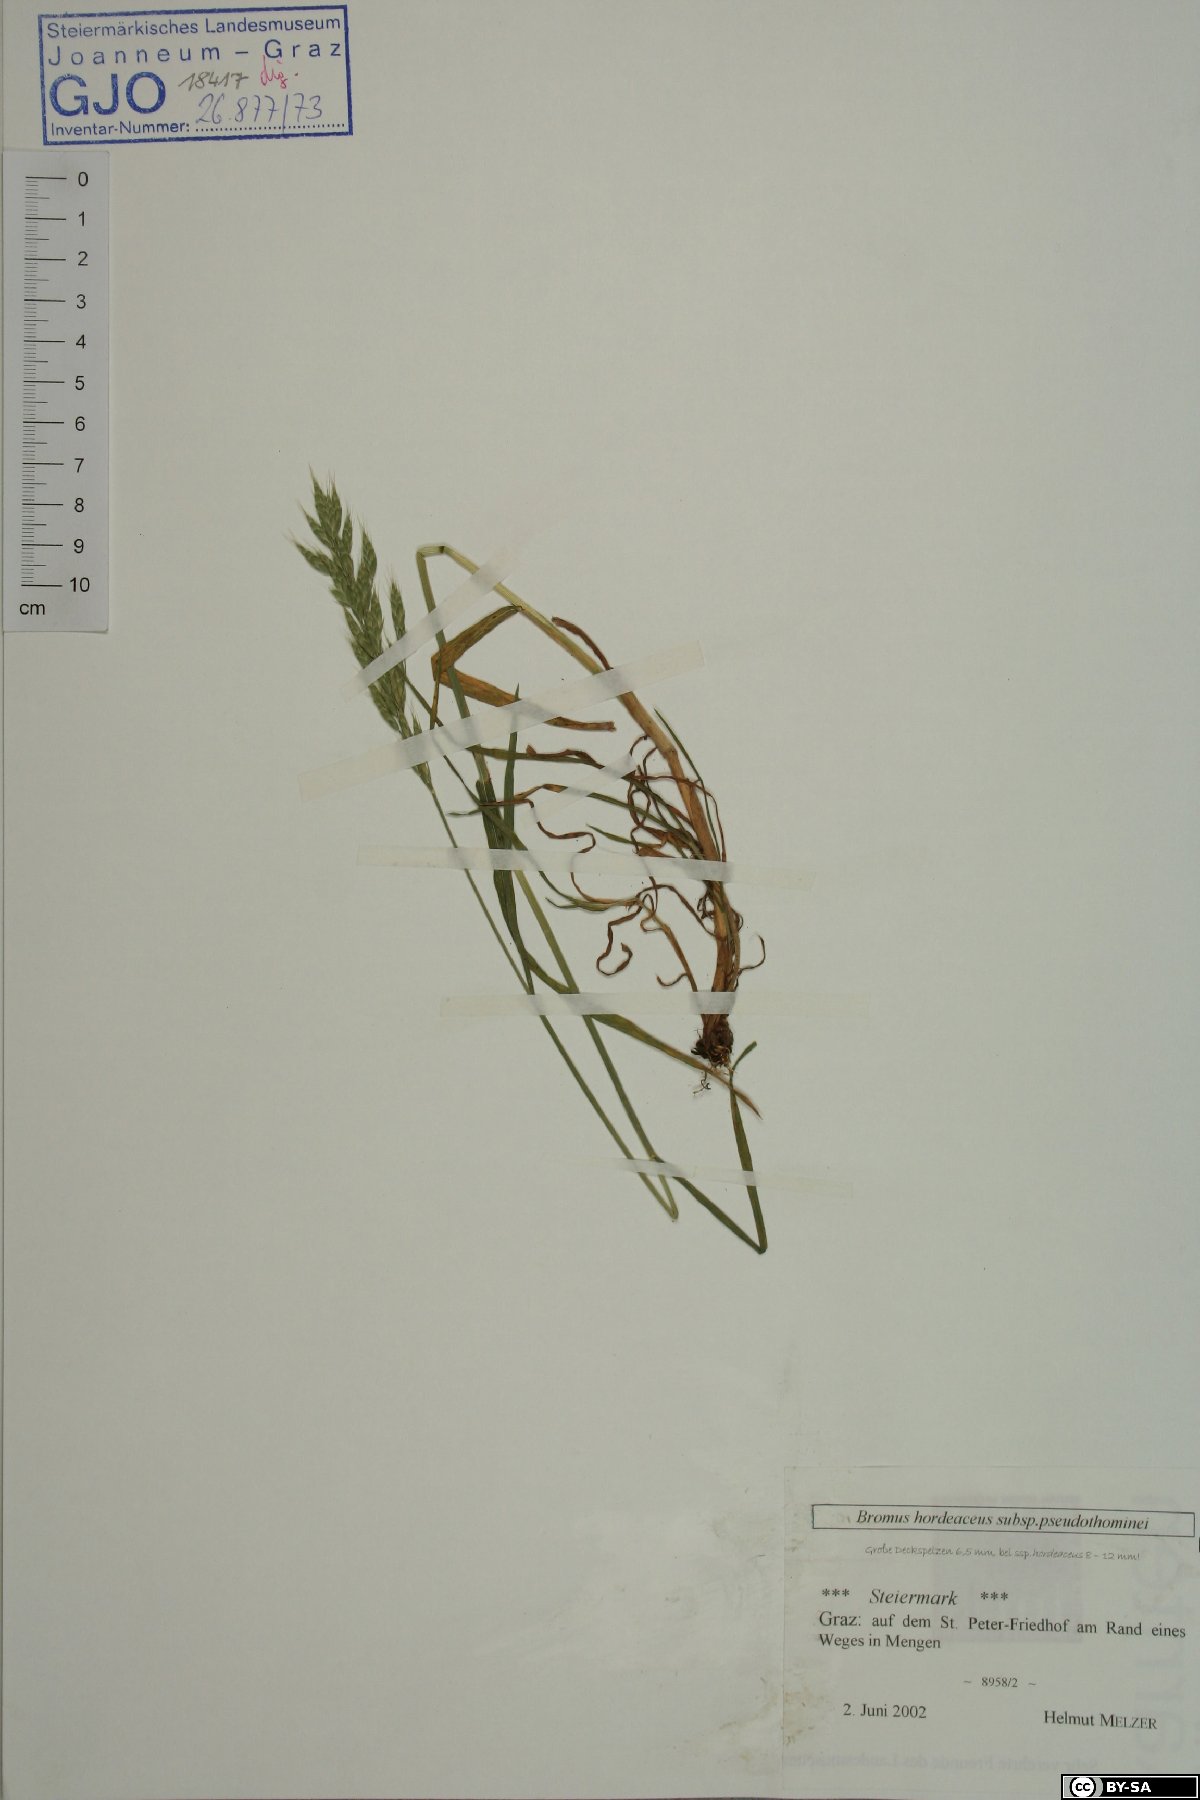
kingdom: Plantae
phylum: Tracheophyta
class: Liliopsida
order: Poales
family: Poaceae
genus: Bromus
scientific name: Bromus ferronii
